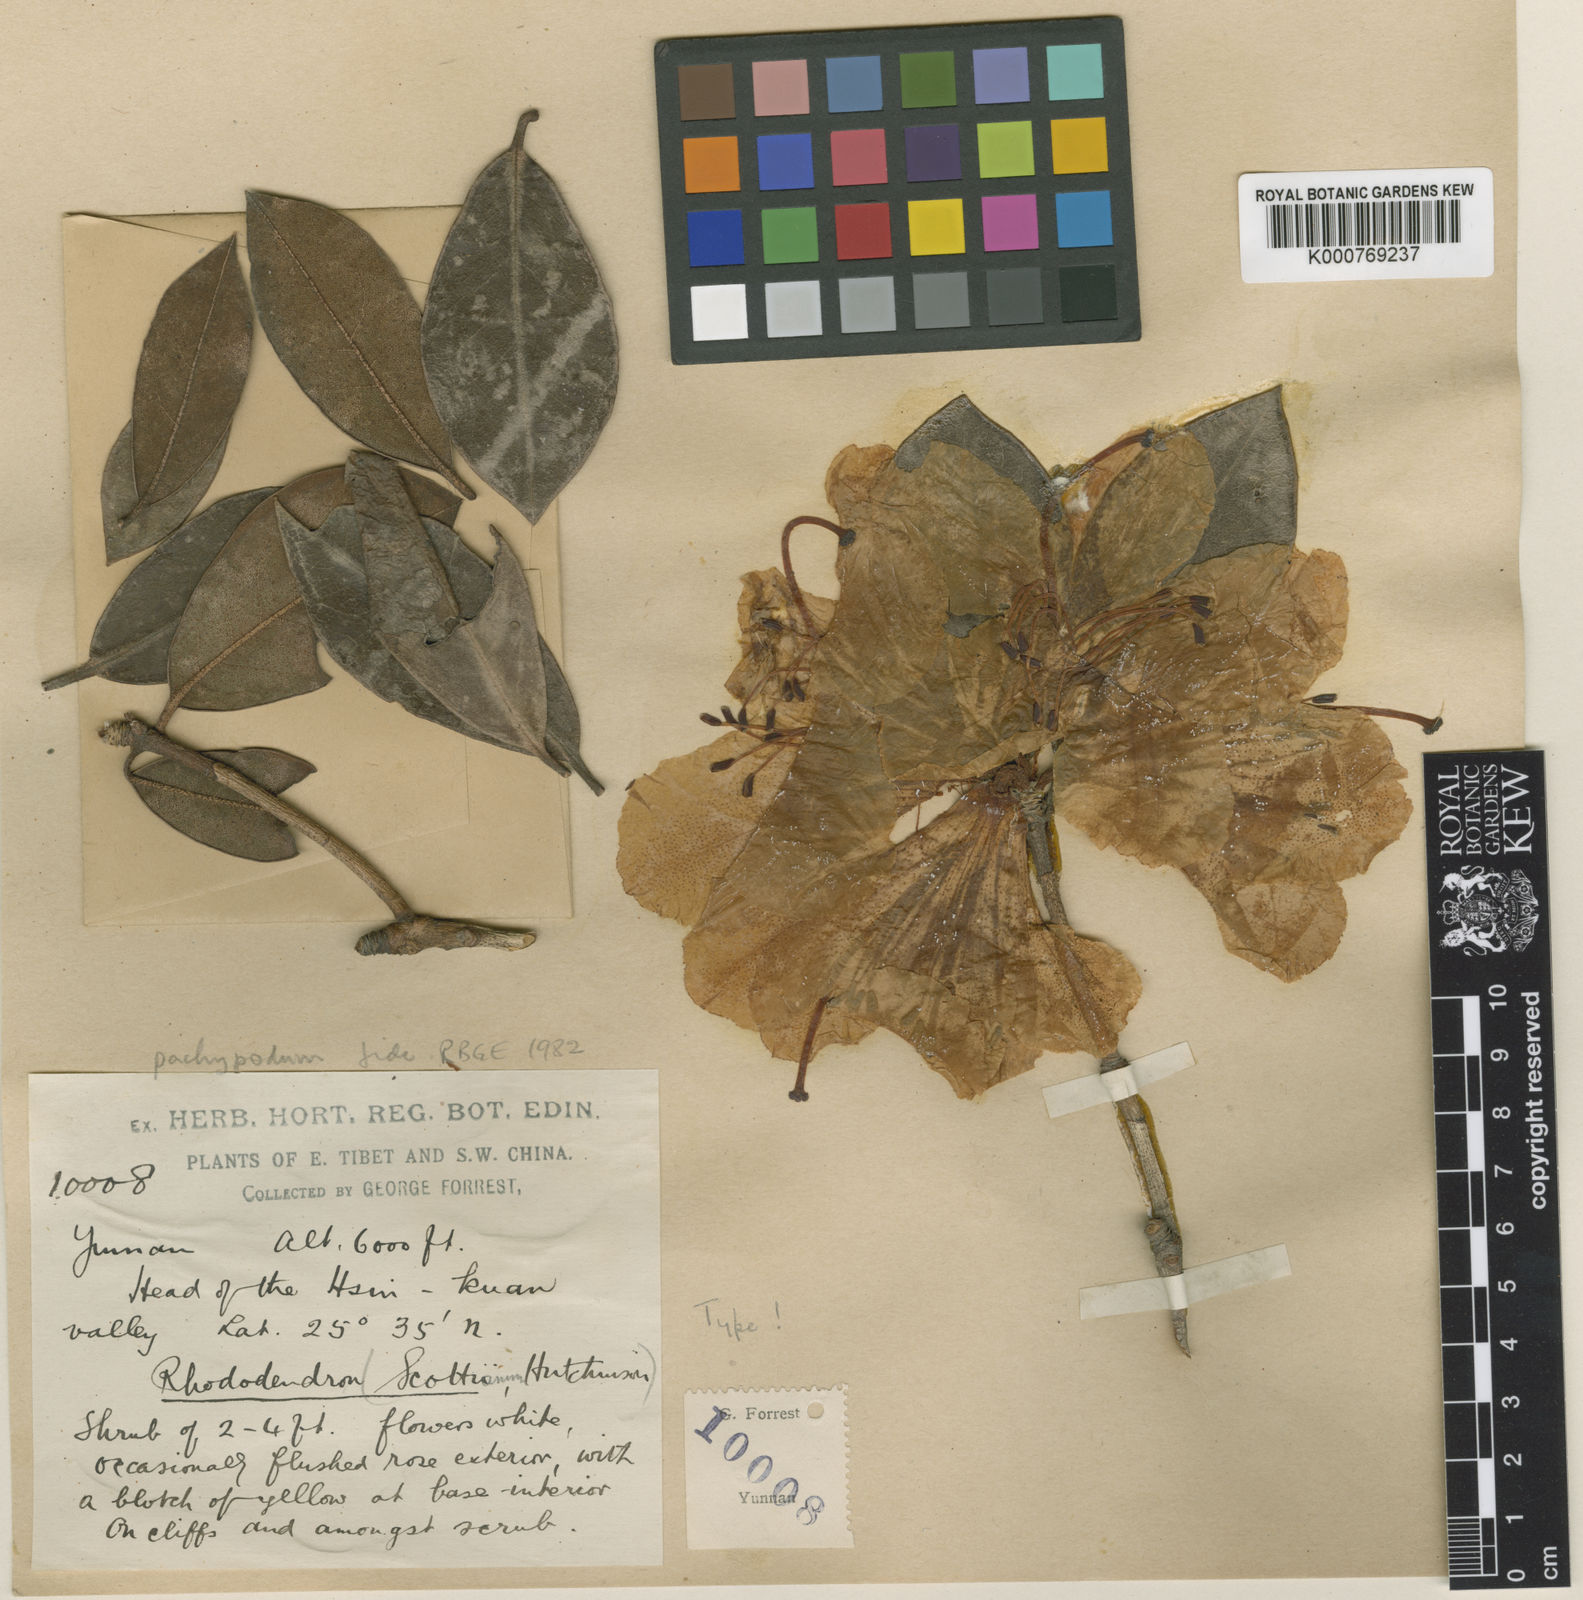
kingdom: Plantae
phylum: Tracheophyta
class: Magnoliopsida
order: Ericales
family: Ericaceae
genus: Rhododendron
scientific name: Rhododendron pachypodum
